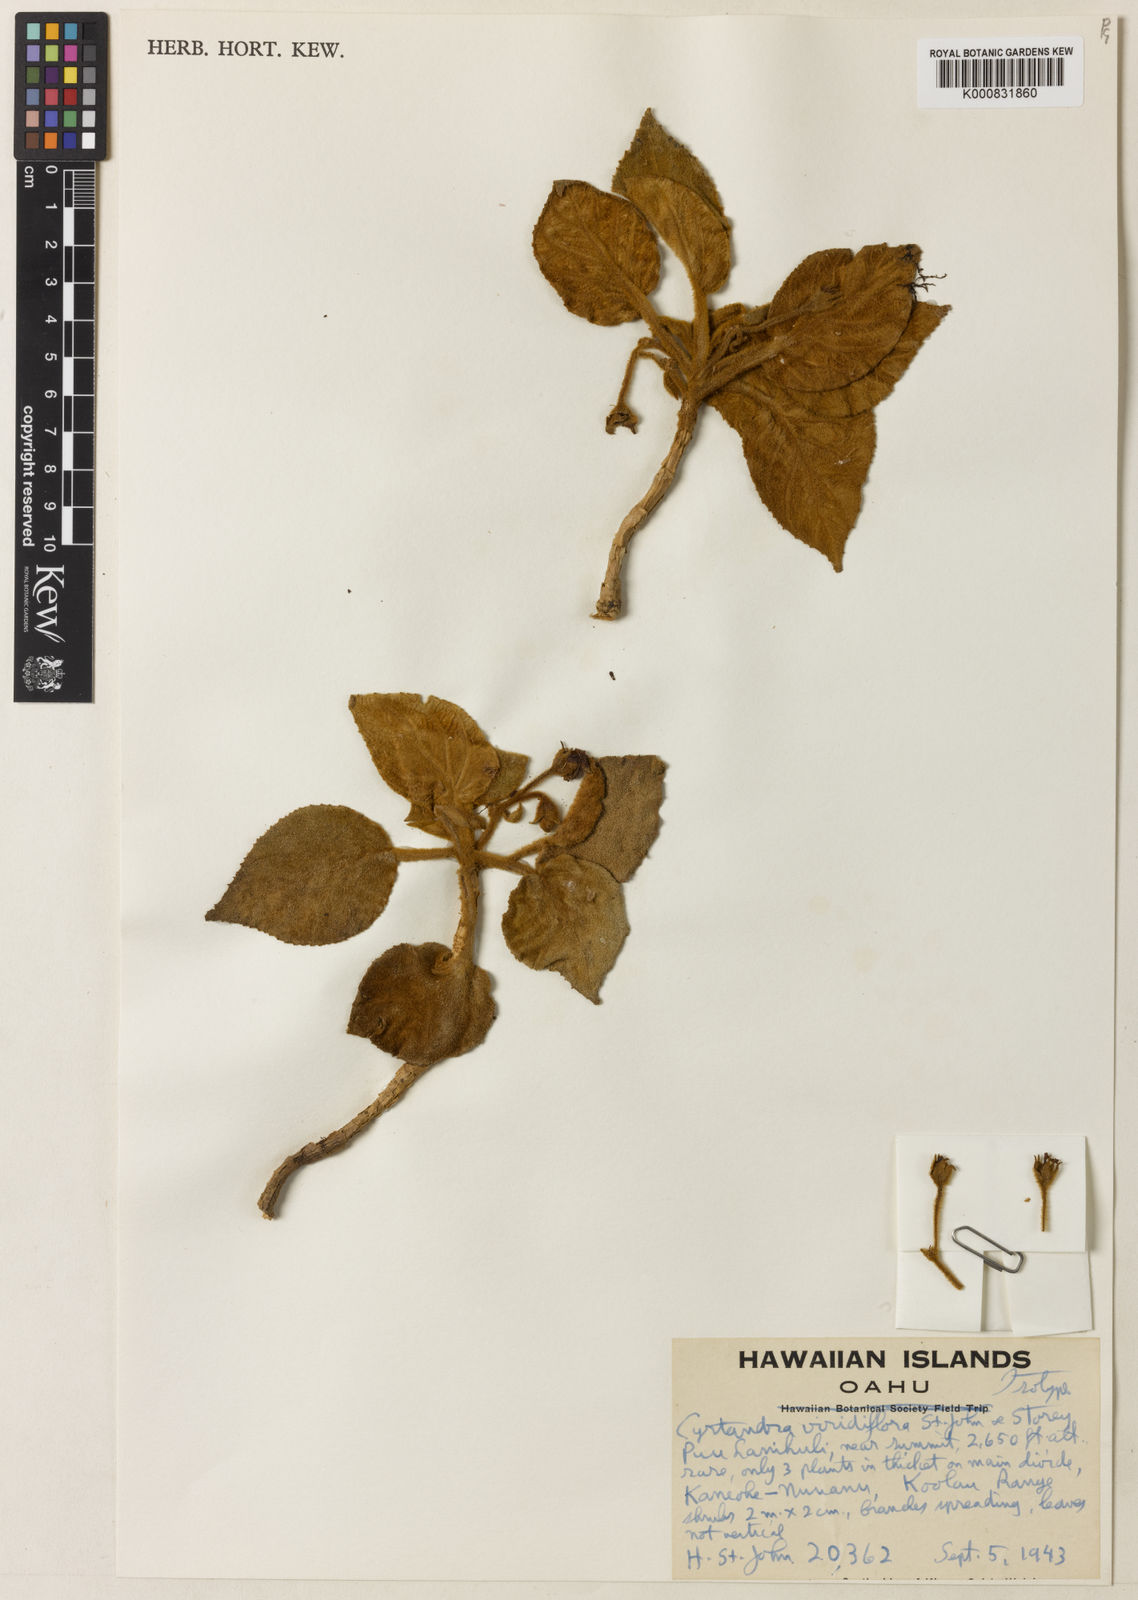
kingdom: Plantae
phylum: Tracheophyta
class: Magnoliopsida
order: Lamiales
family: Gesneriaceae
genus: Cyrtandra
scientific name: Cyrtandra viridiflora
